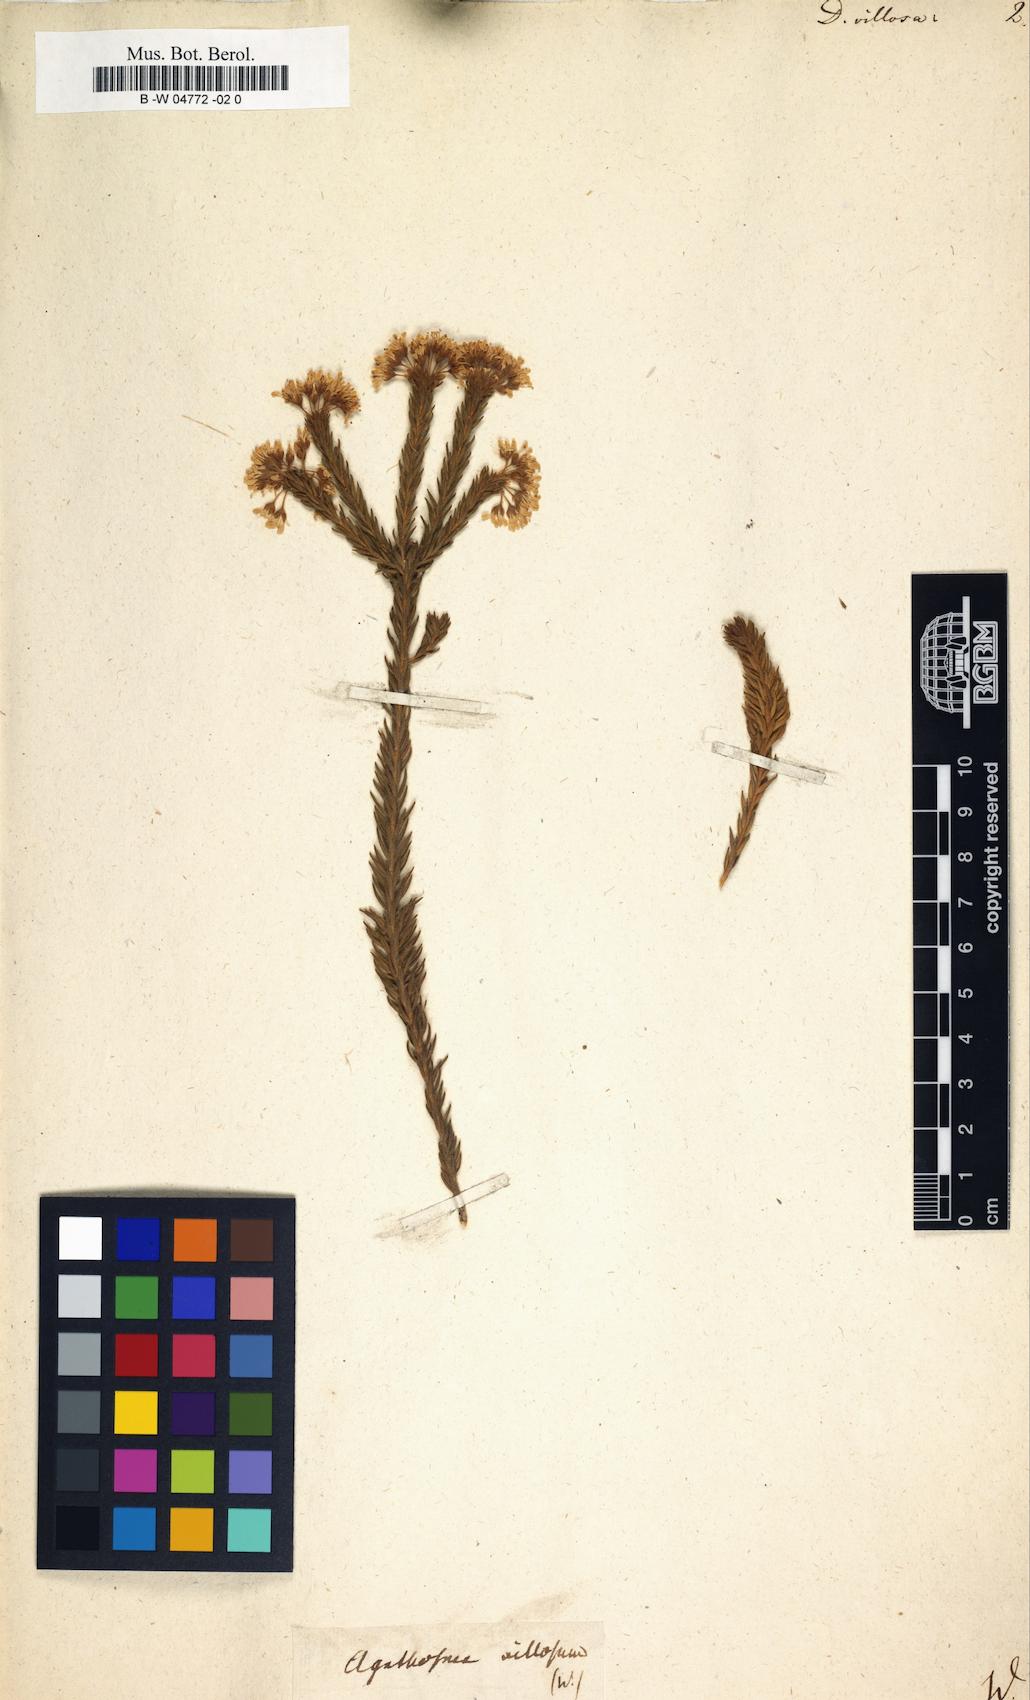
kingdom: Plantae
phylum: Tracheophyta
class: Magnoliopsida
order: Sapindales
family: Rutaceae
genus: Agathosma
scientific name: Agathosma glabrata
